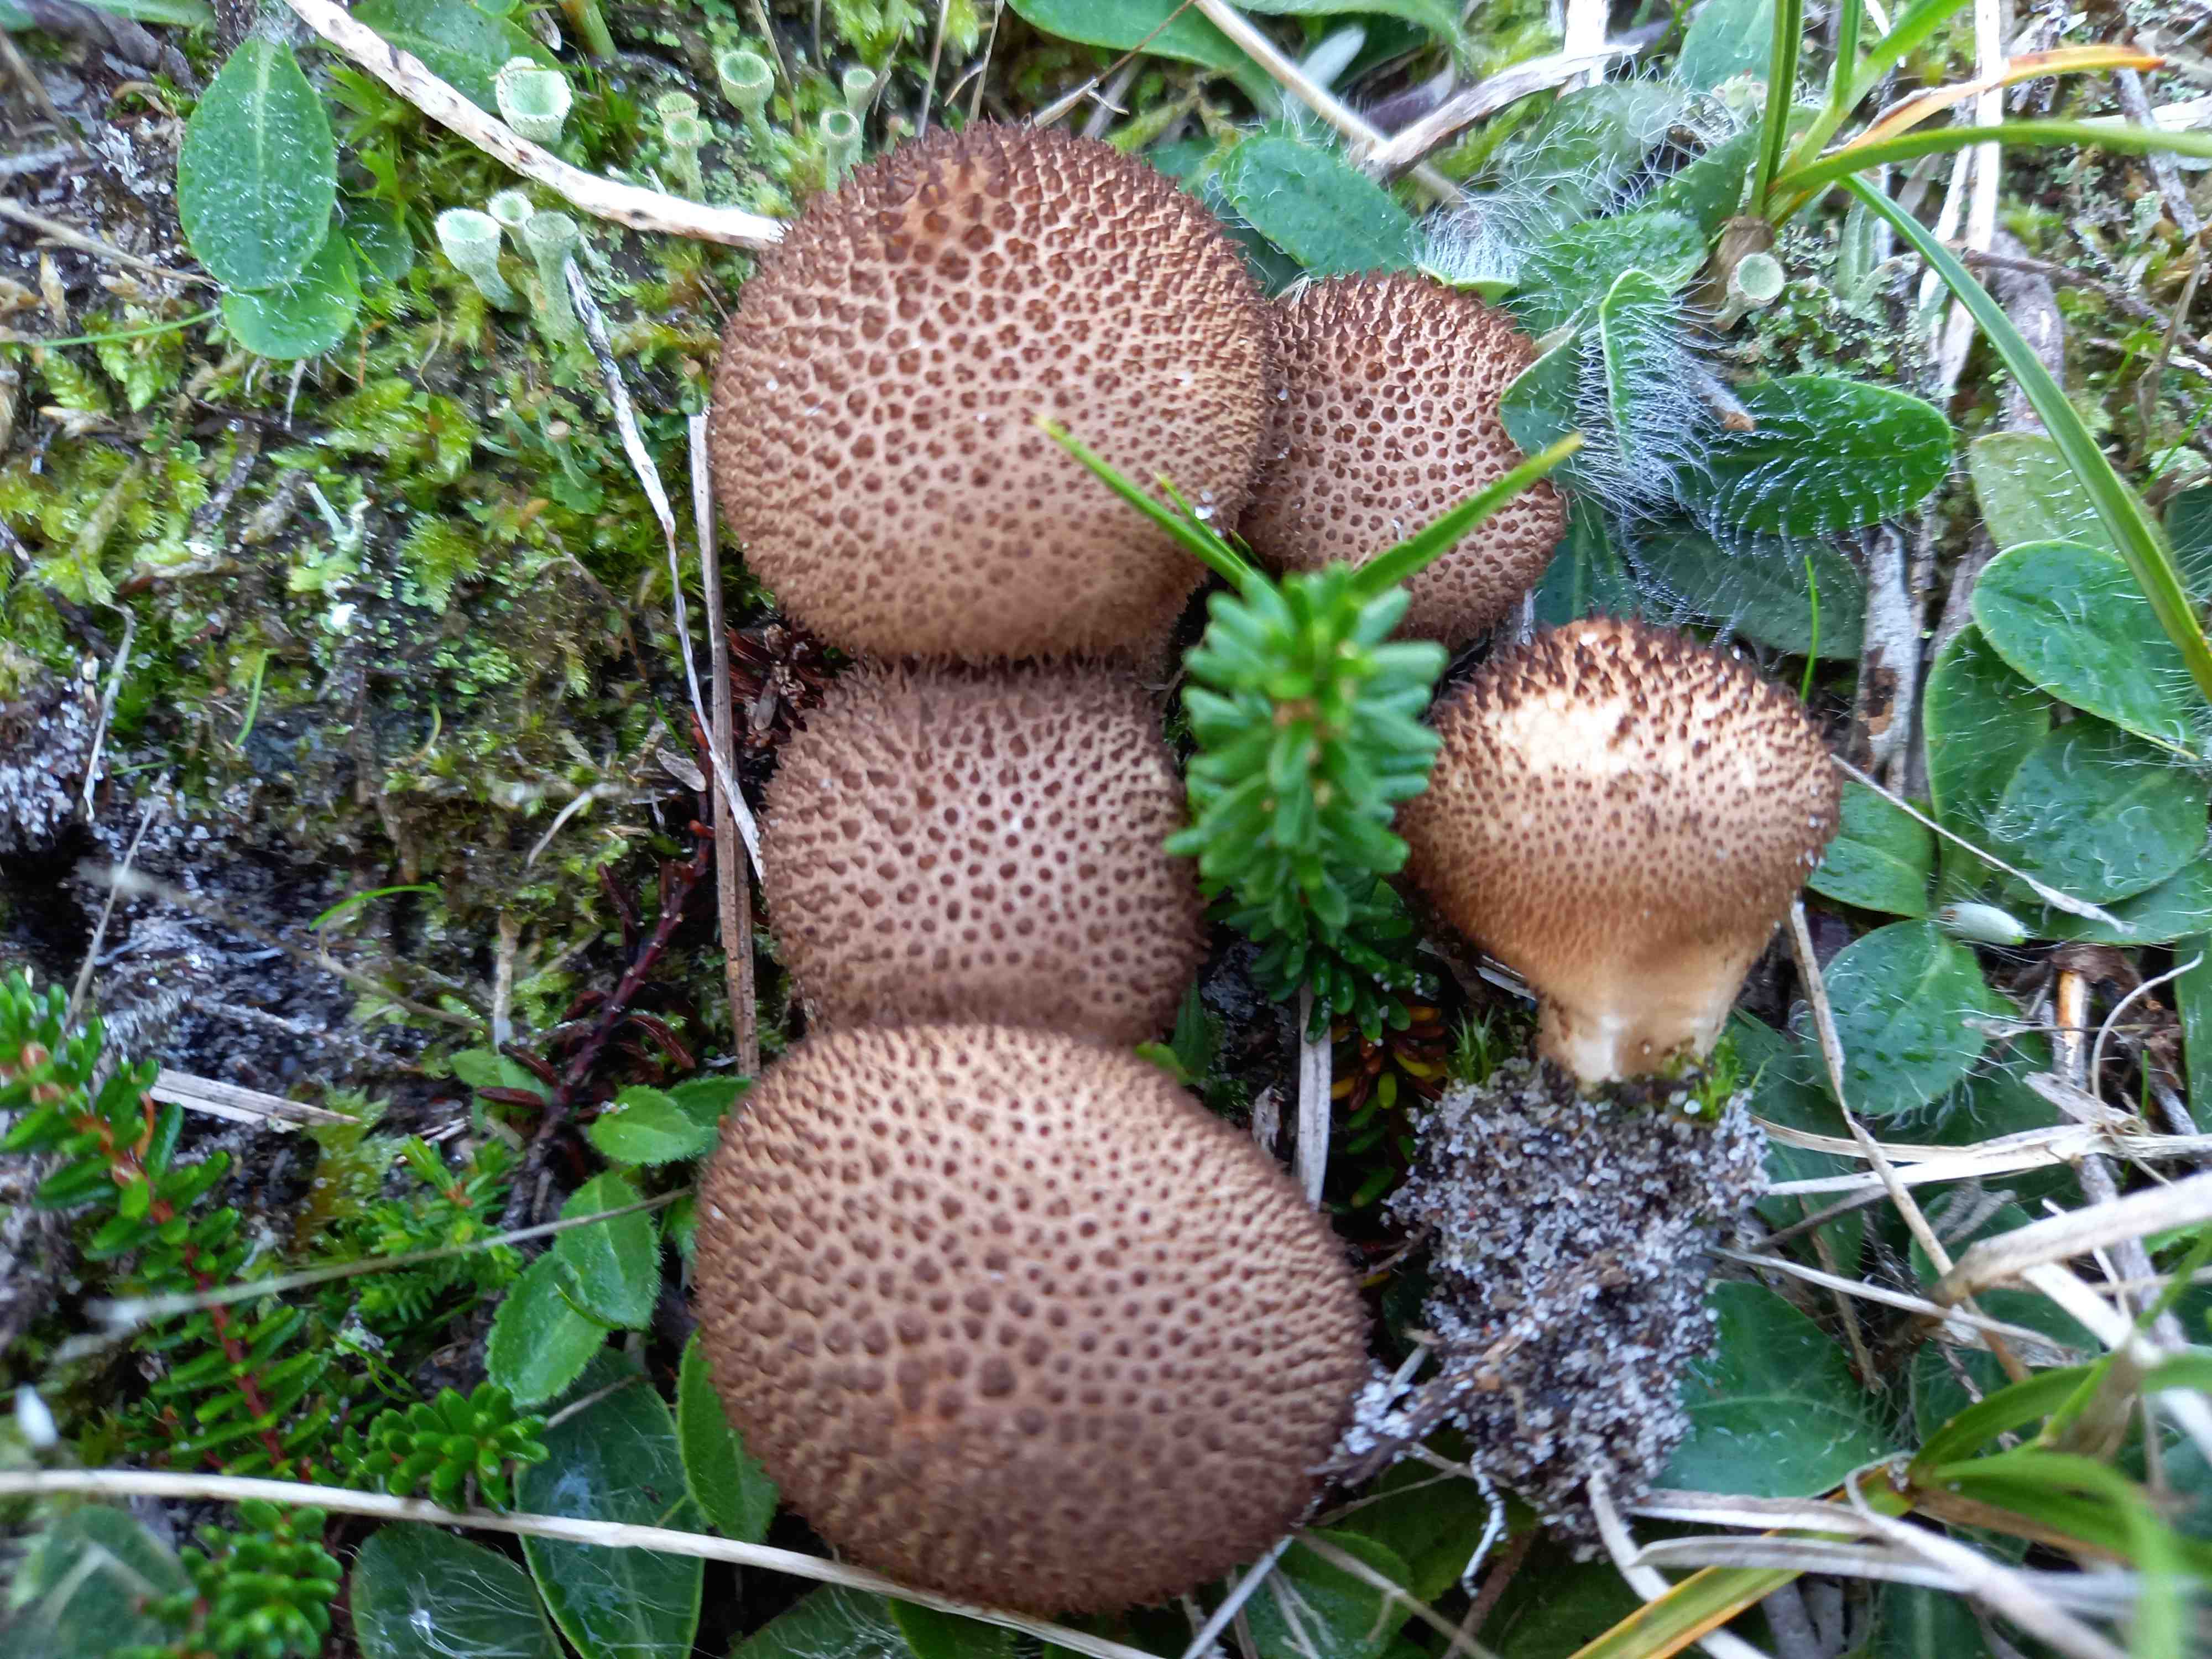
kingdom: Fungi
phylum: Basidiomycota
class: Agaricomycetes
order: Agaricales
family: Lycoperdaceae
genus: Lycoperdon
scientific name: Lycoperdon nigrescens
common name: sortagtig støvbold
